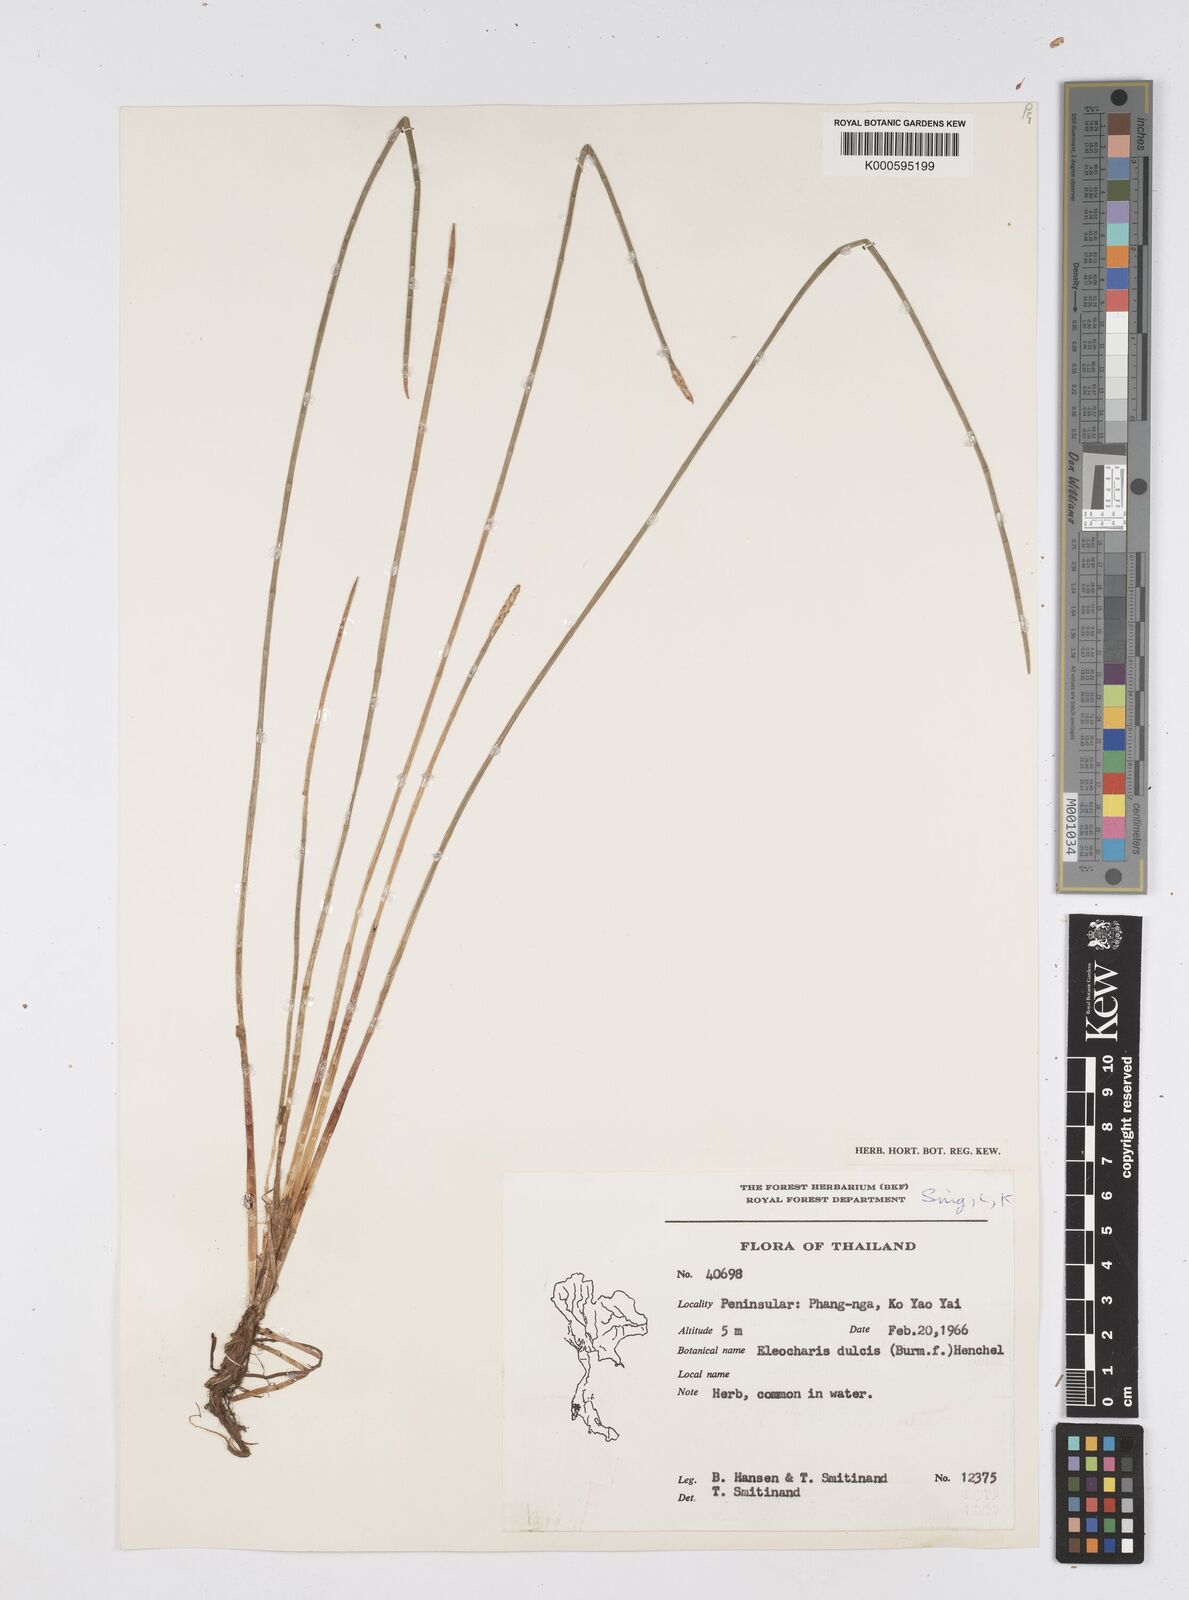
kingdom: Plantae
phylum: Tracheophyta
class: Liliopsida
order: Poales
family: Cyperaceae
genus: Eleocharis
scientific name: Eleocharis dulcis
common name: Chinese water chestnut
